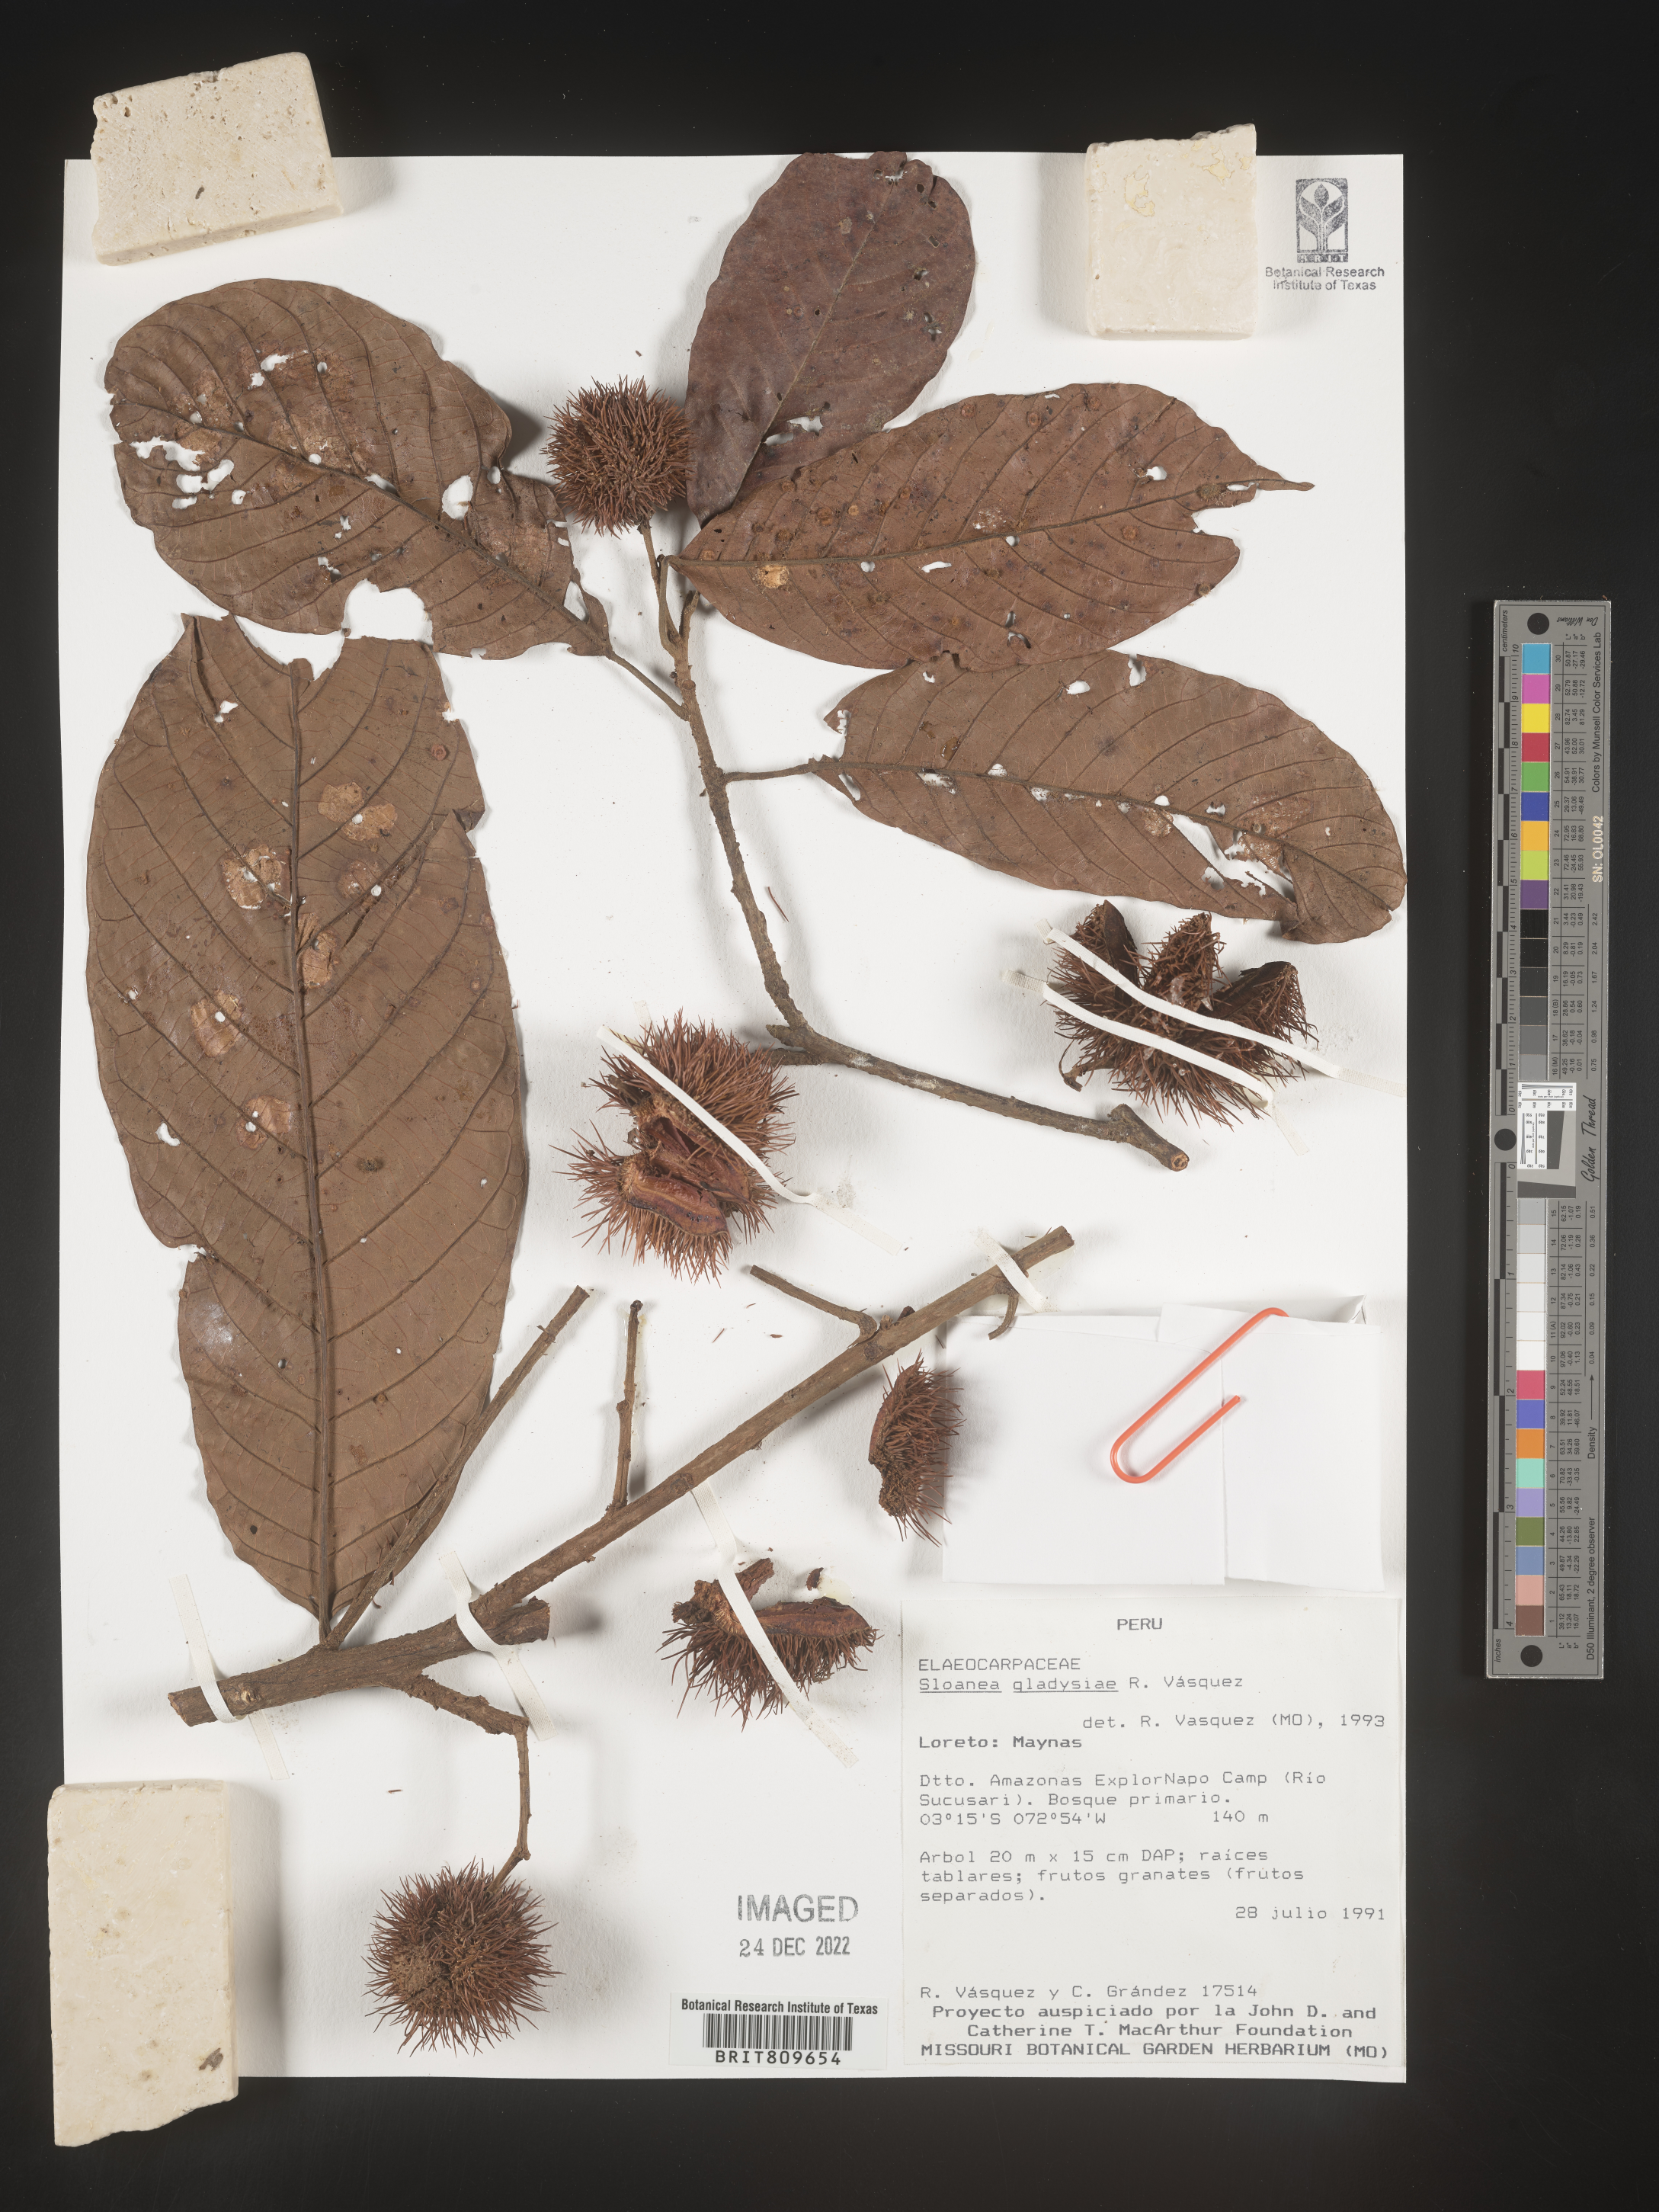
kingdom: Plantae
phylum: Tracheophyta
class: Magnoliopsida
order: Oxalidales
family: Elaeocarpaceae
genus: Sloanea
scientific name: Sloanea
